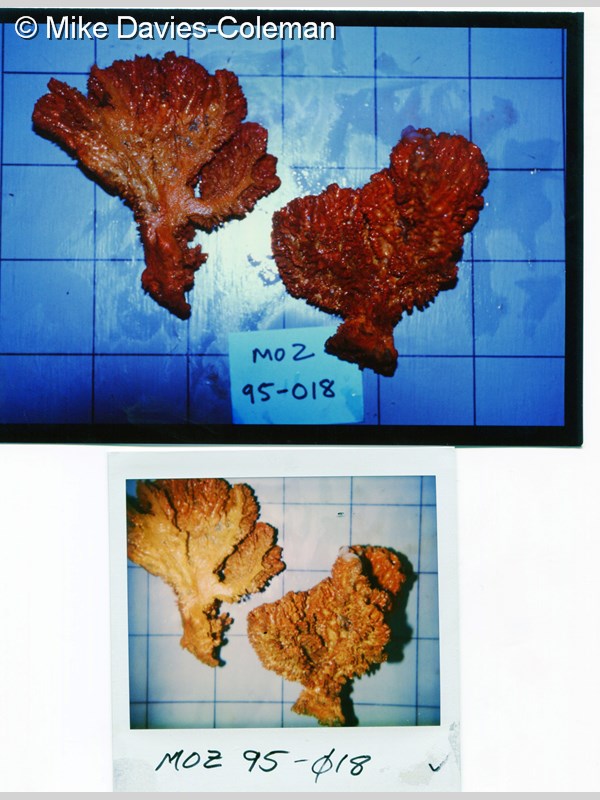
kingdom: Animalia
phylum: Porifera
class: Demospongiae
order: Axinellida
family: Axinellidae
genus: Axinella
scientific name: Axinella
